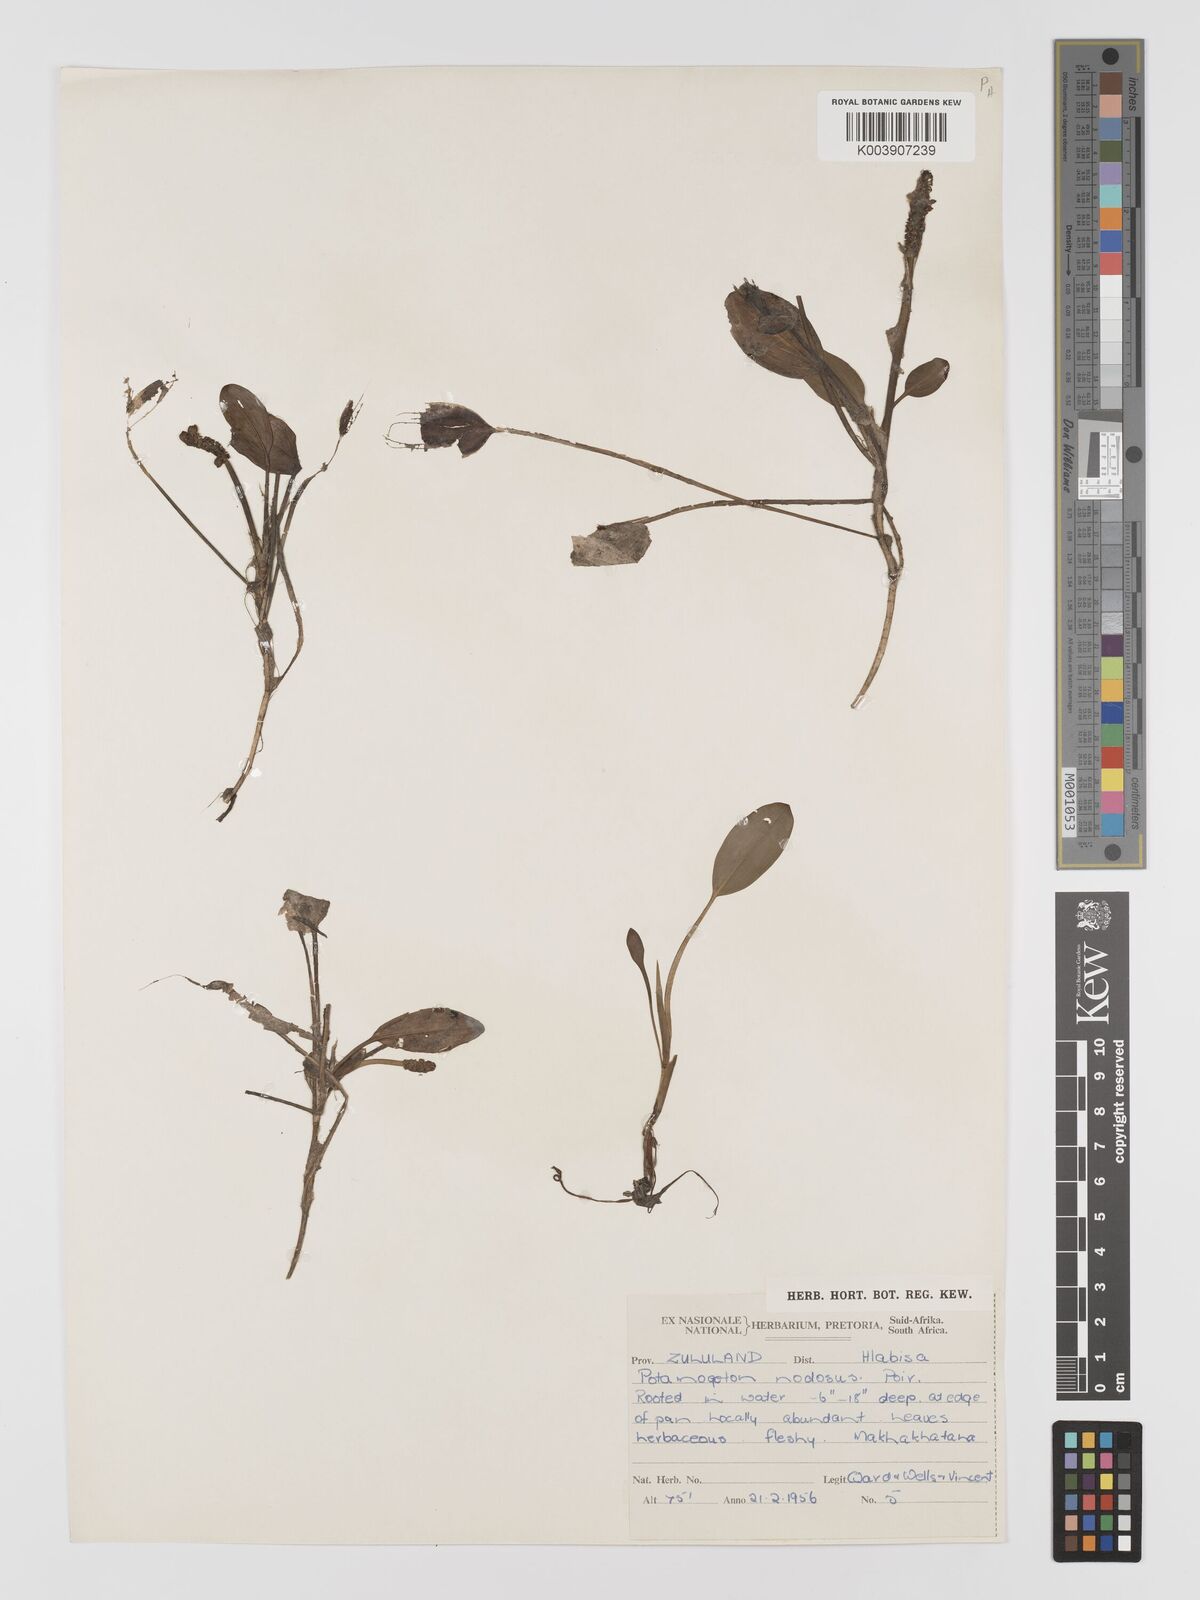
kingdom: Plantae
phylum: Tracheophyta
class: Liliopsida
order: Alismatales
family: Potamogetonaceae
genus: Potamogeton
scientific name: Potamogeton nodosus
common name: Loddon pondweed
